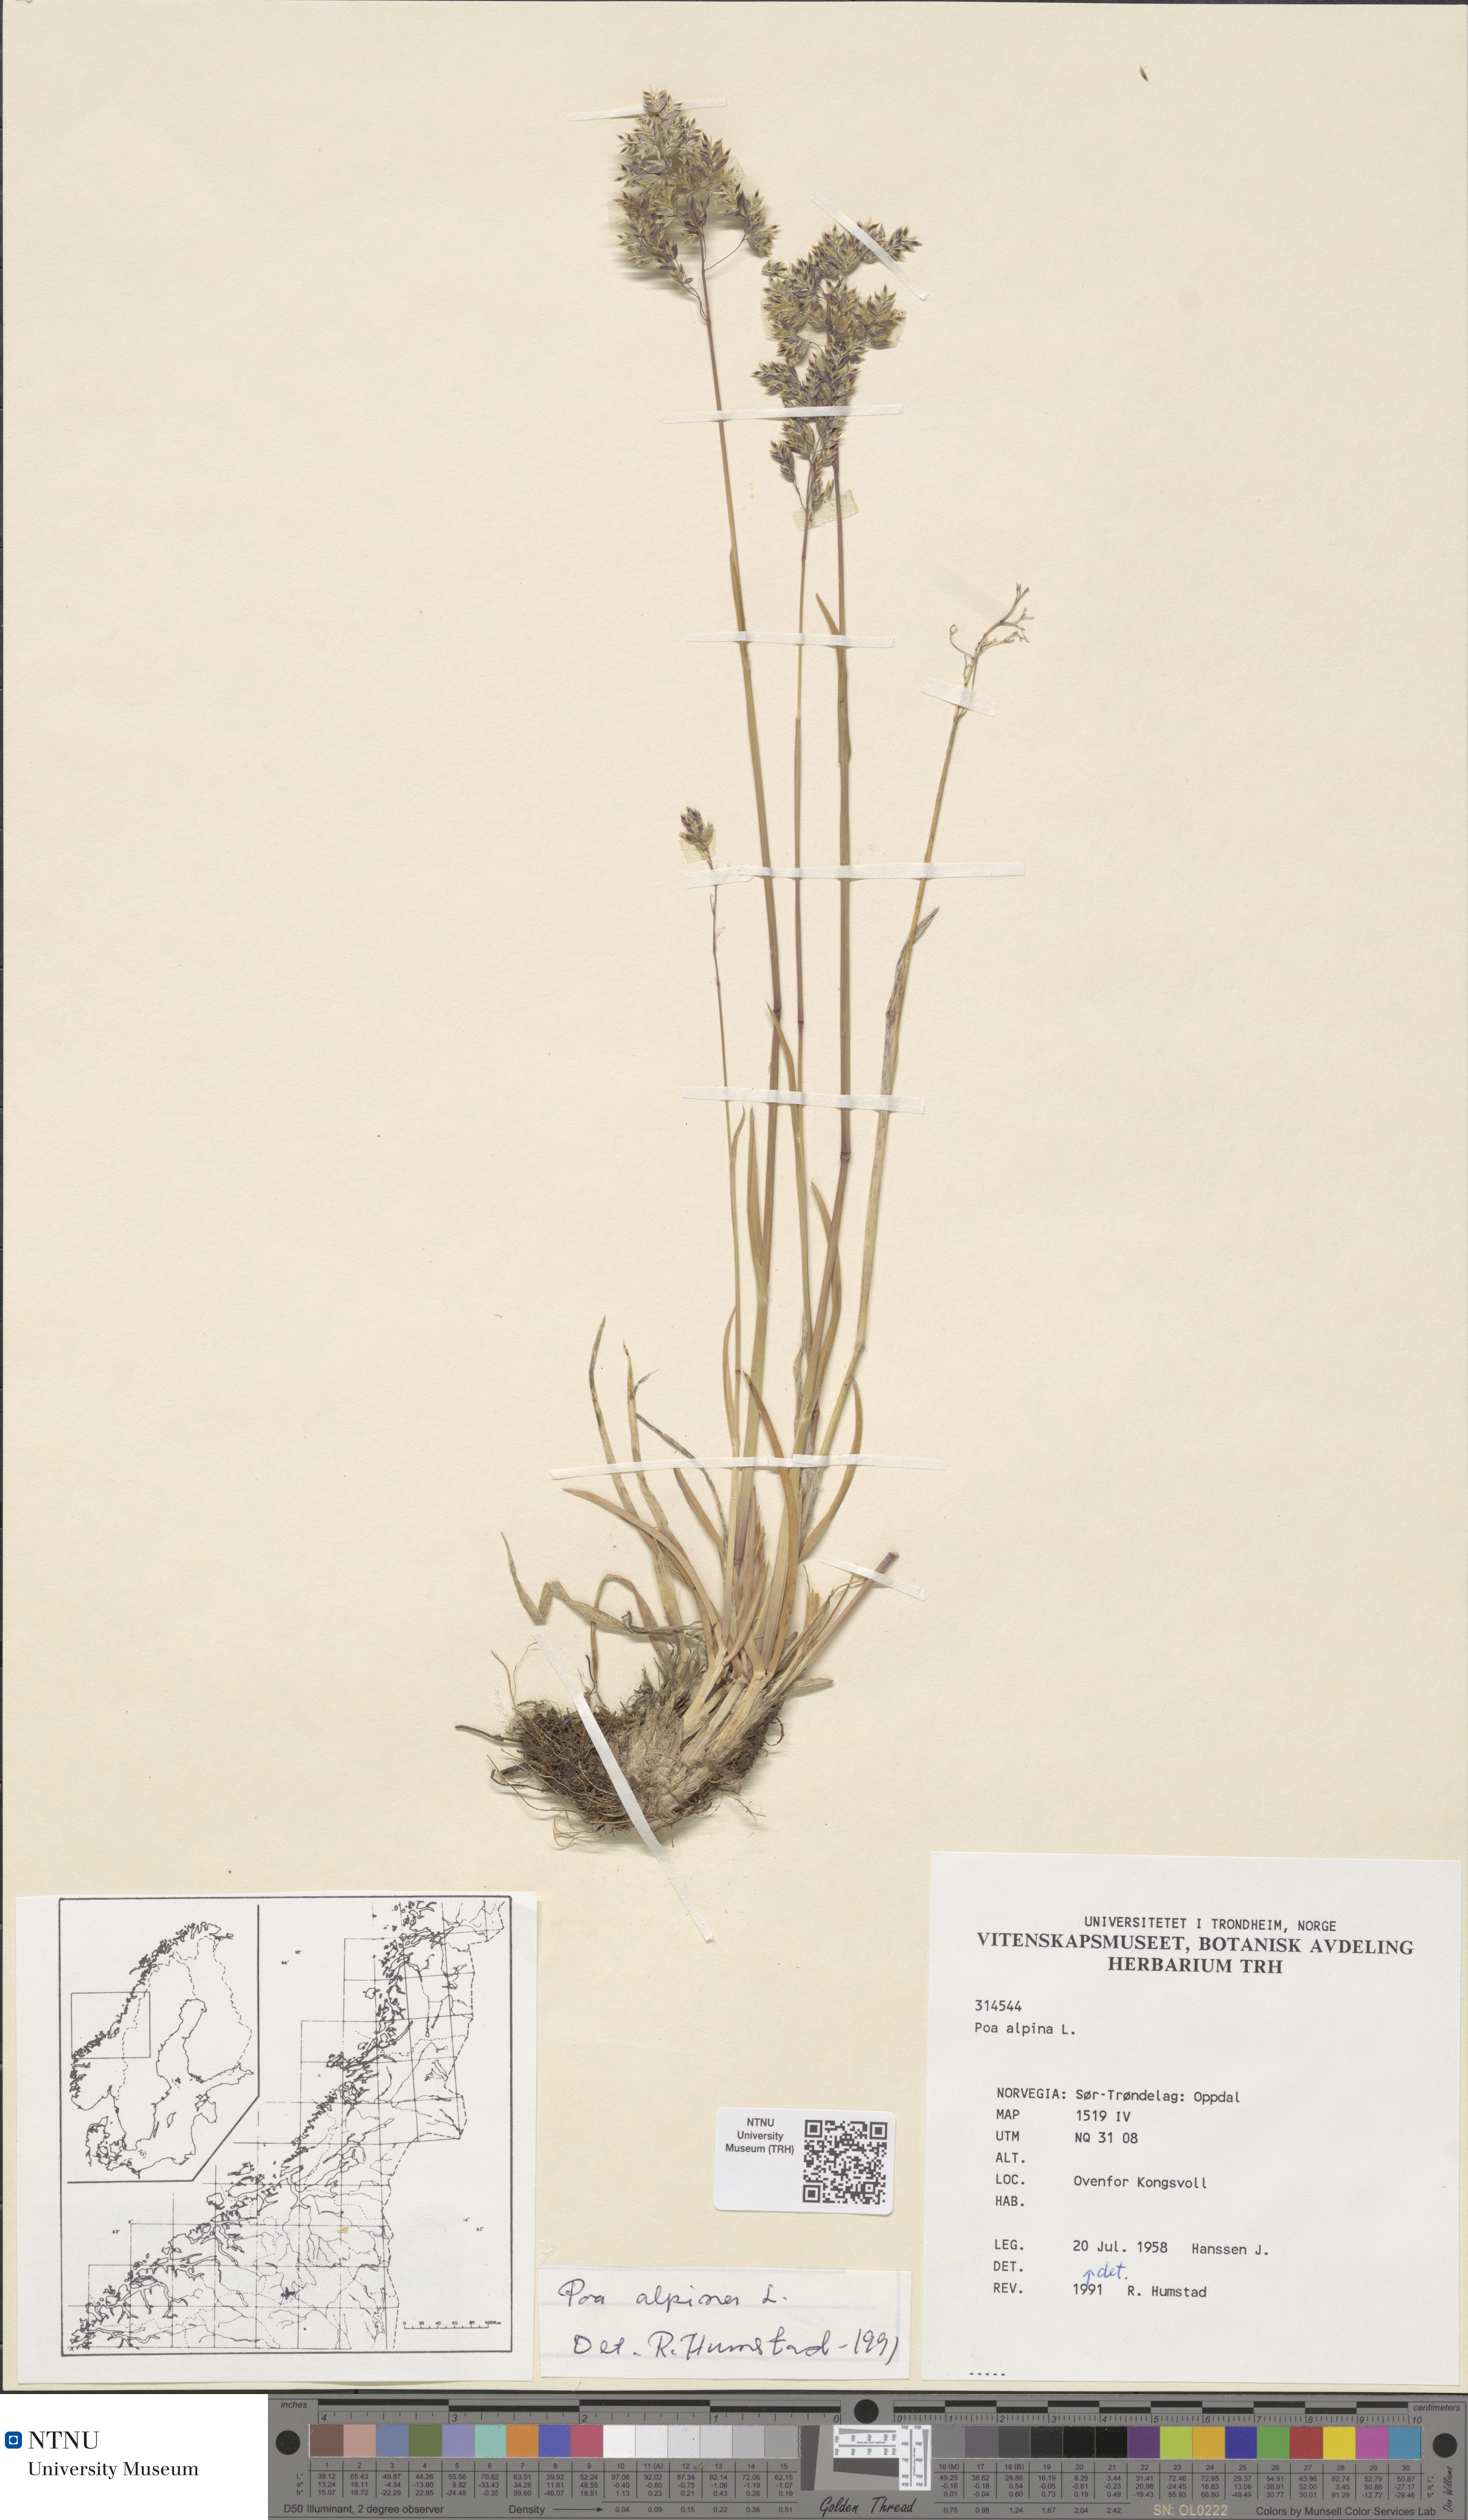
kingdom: Plantae
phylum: Tracheophyta
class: Liliopsida
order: Poales
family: Poaceae
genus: Poa
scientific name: Poa alpina
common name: Alpine bluegrass
